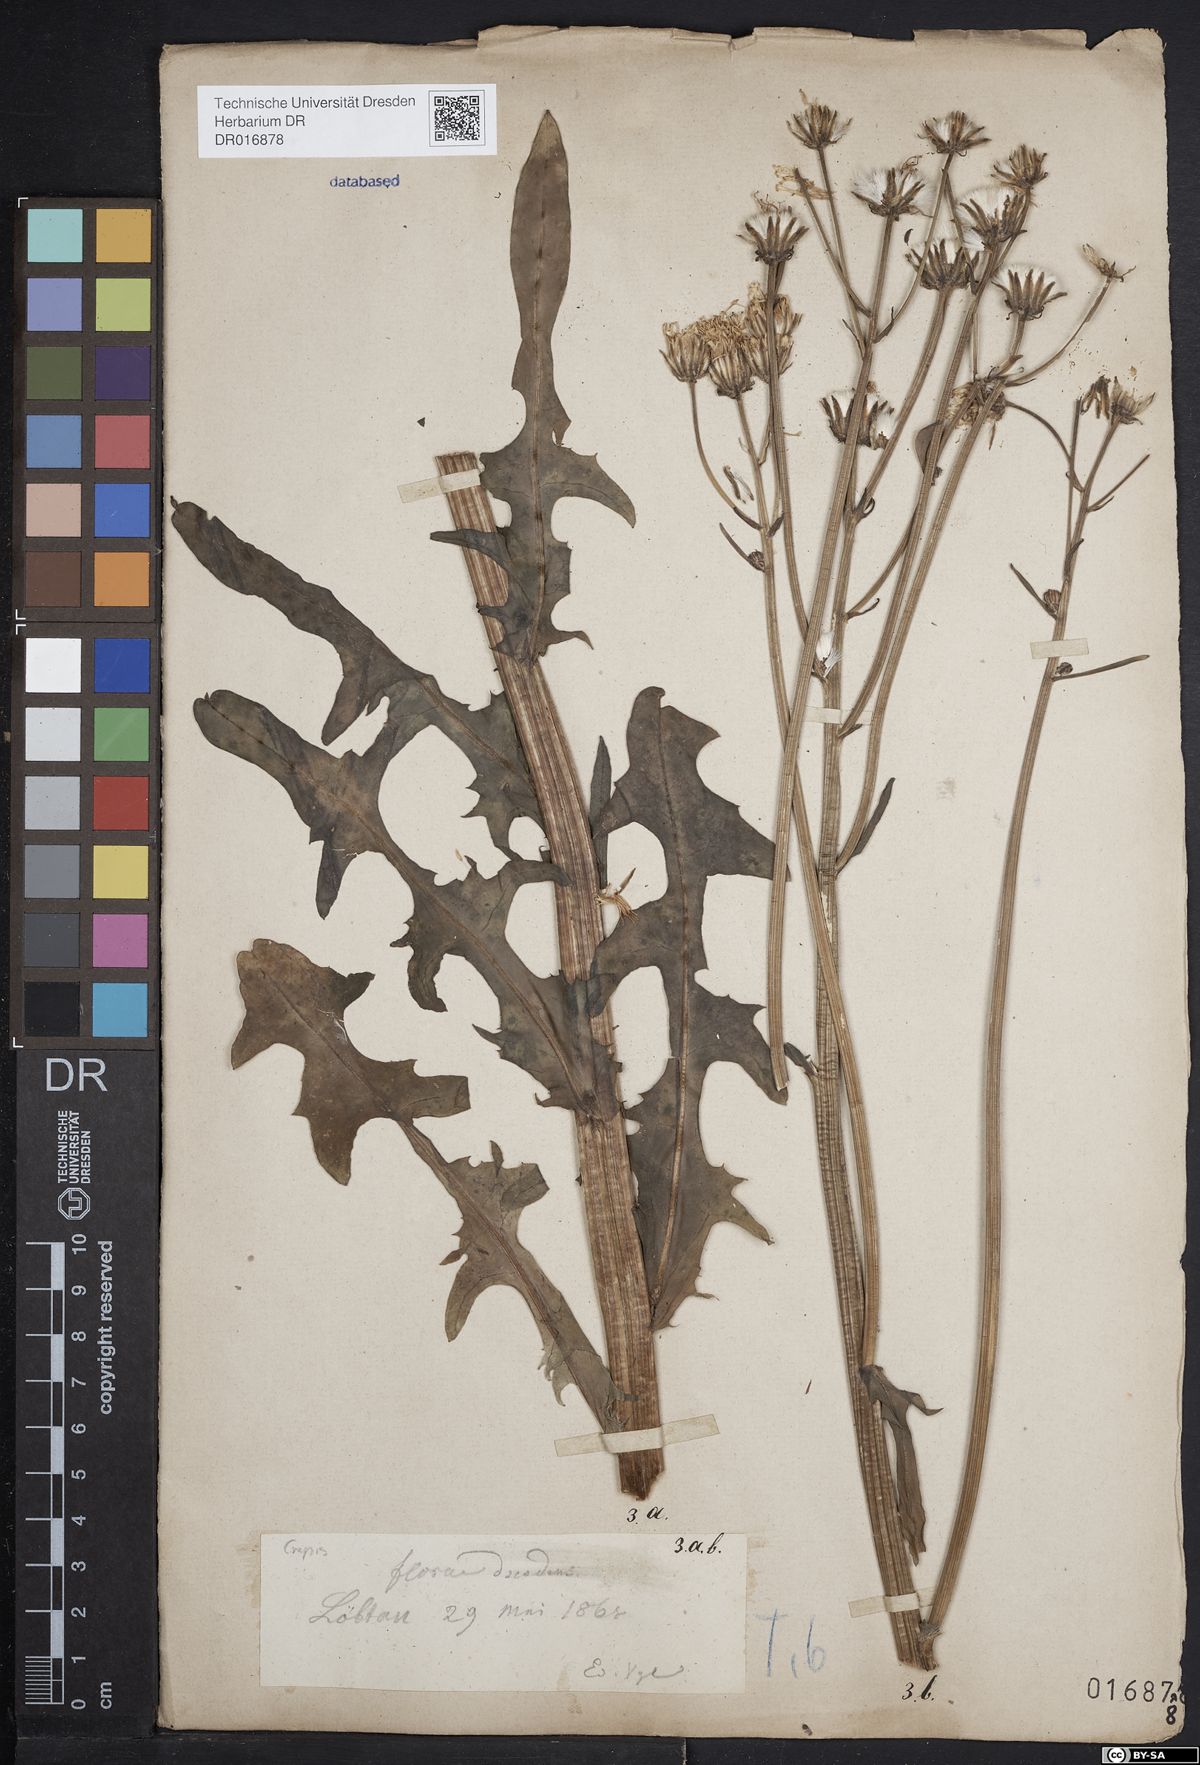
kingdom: Plantae
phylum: Tracheophyta
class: Magnoliopsida
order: Asterales
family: Asteraceae
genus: Crepis
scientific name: Crepis biennis
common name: Rough hawk's-beard
